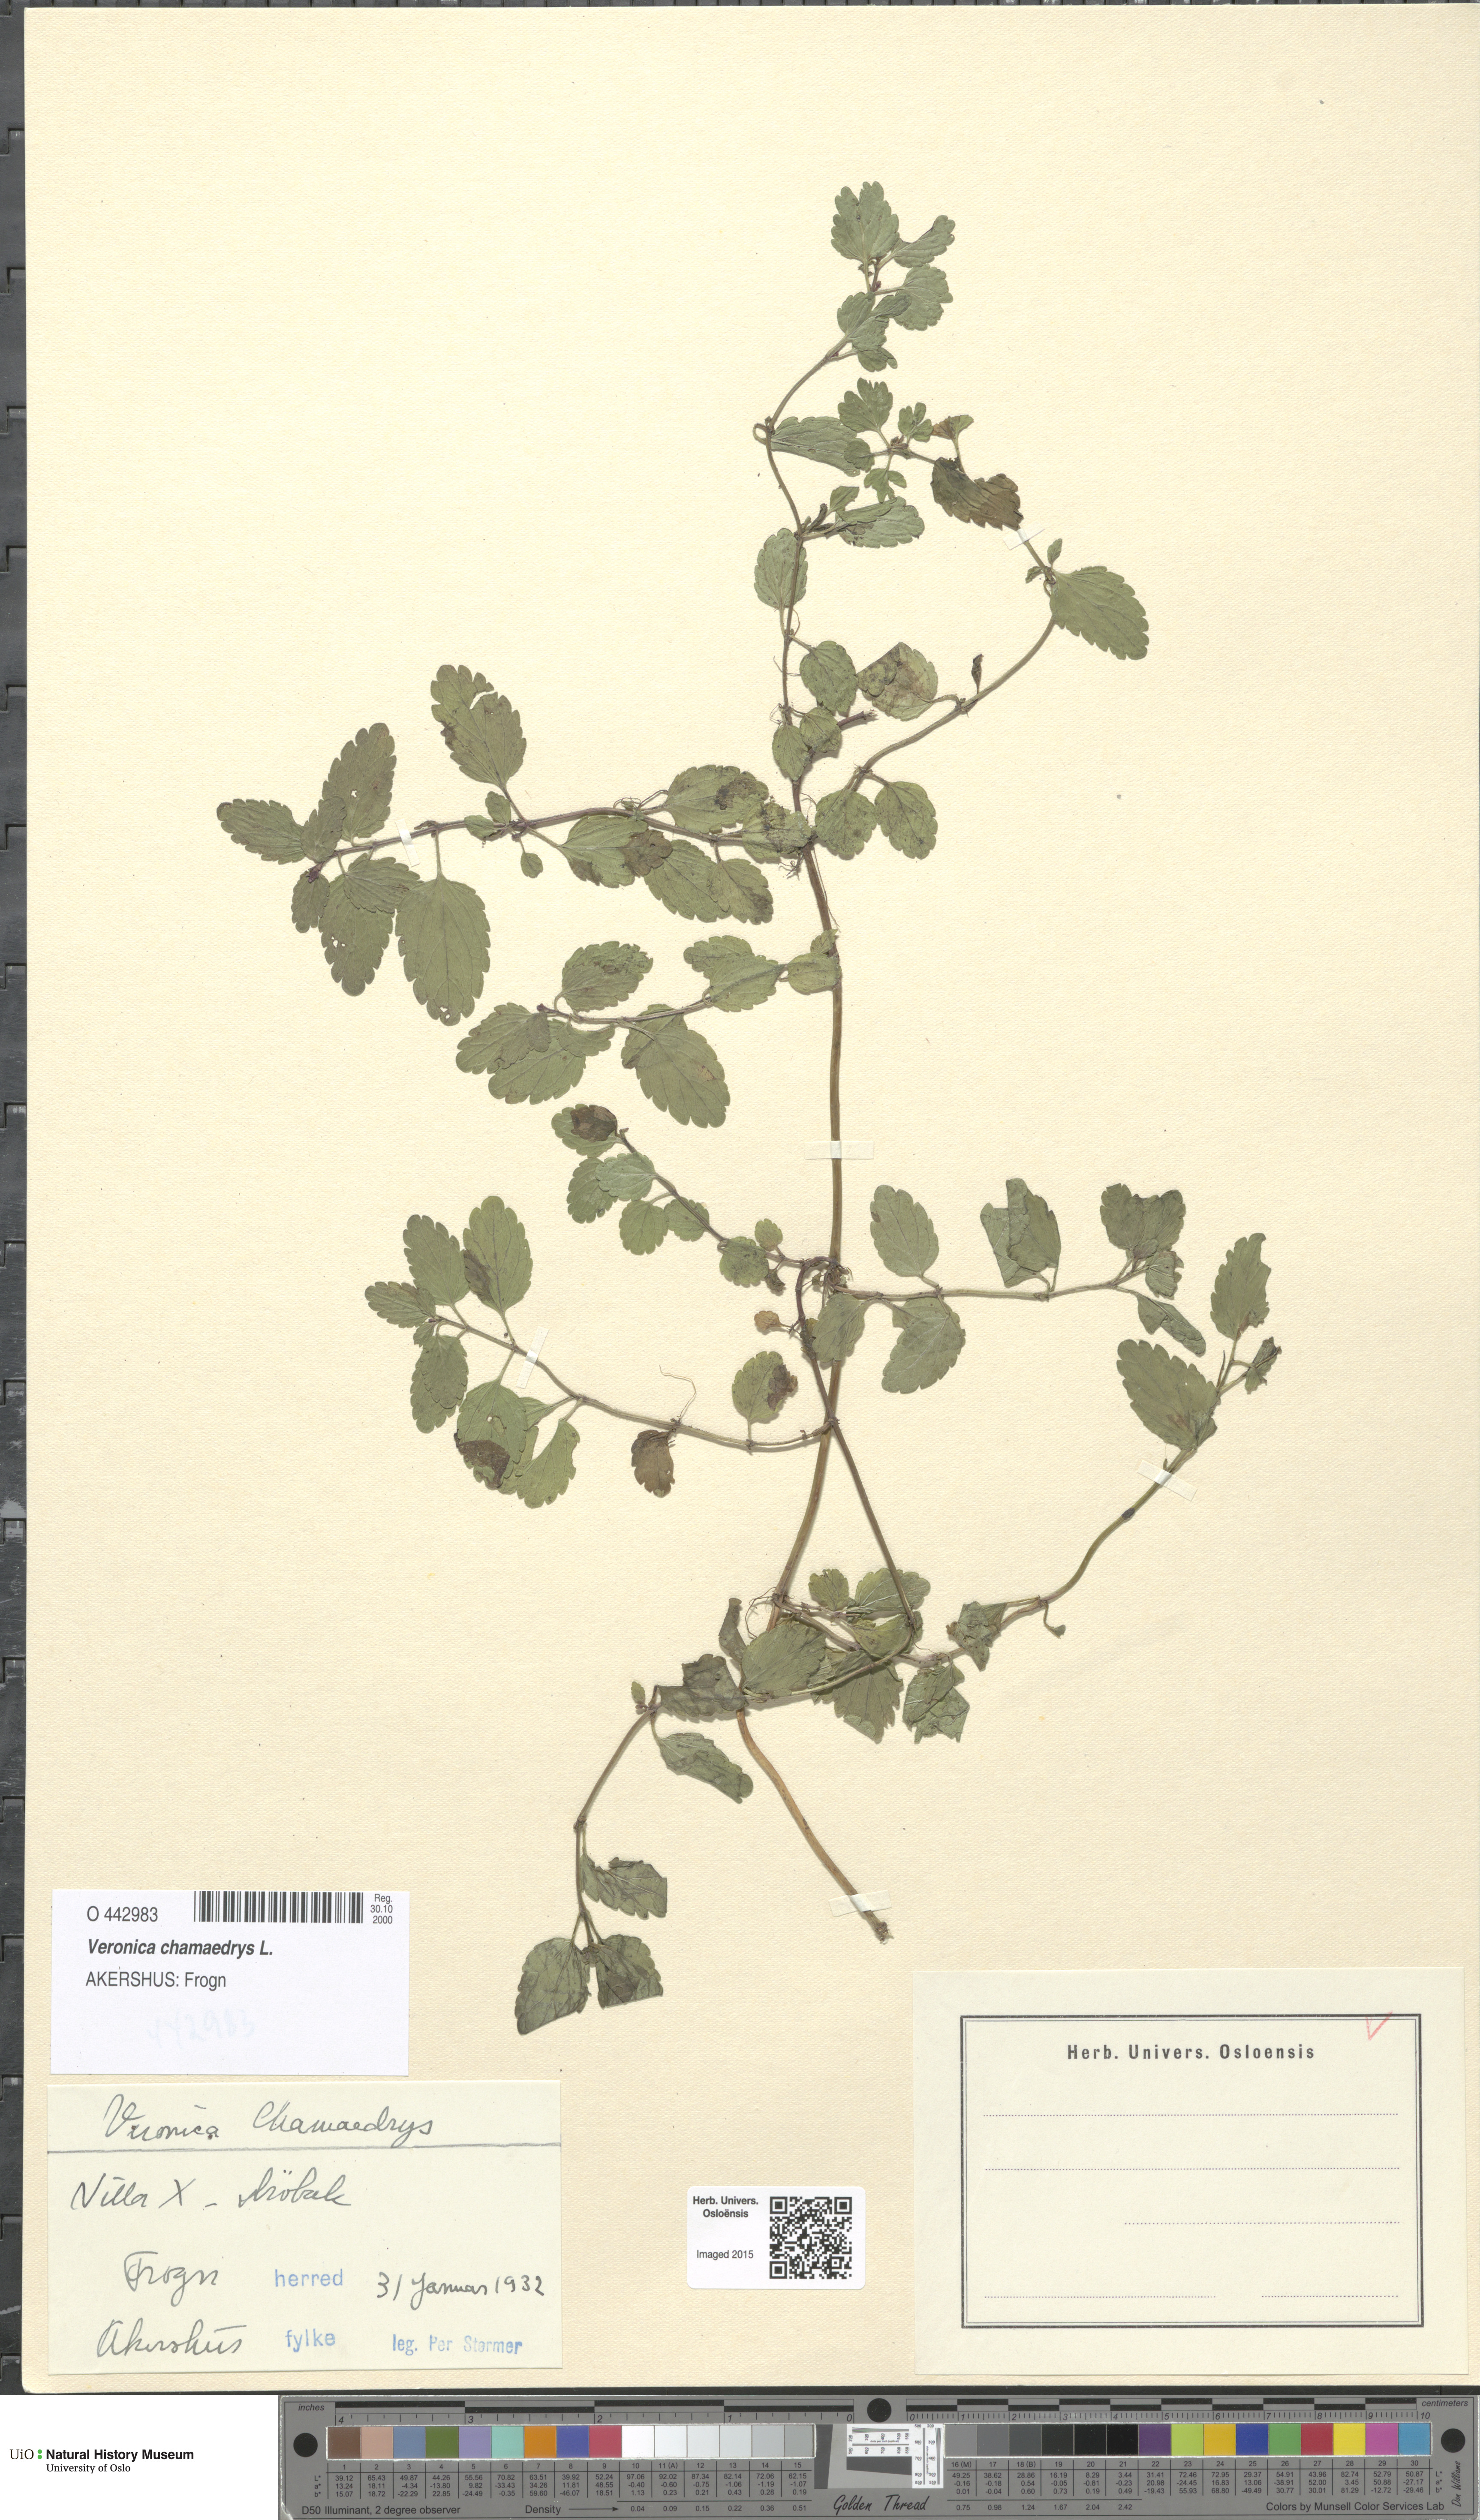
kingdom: Plantae
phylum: Tracheophyta
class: Magnoliopsida
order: Lamiales
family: Plantaginaceae
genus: Veronica
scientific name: Veronica chamaedrys
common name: Germander speedwell
